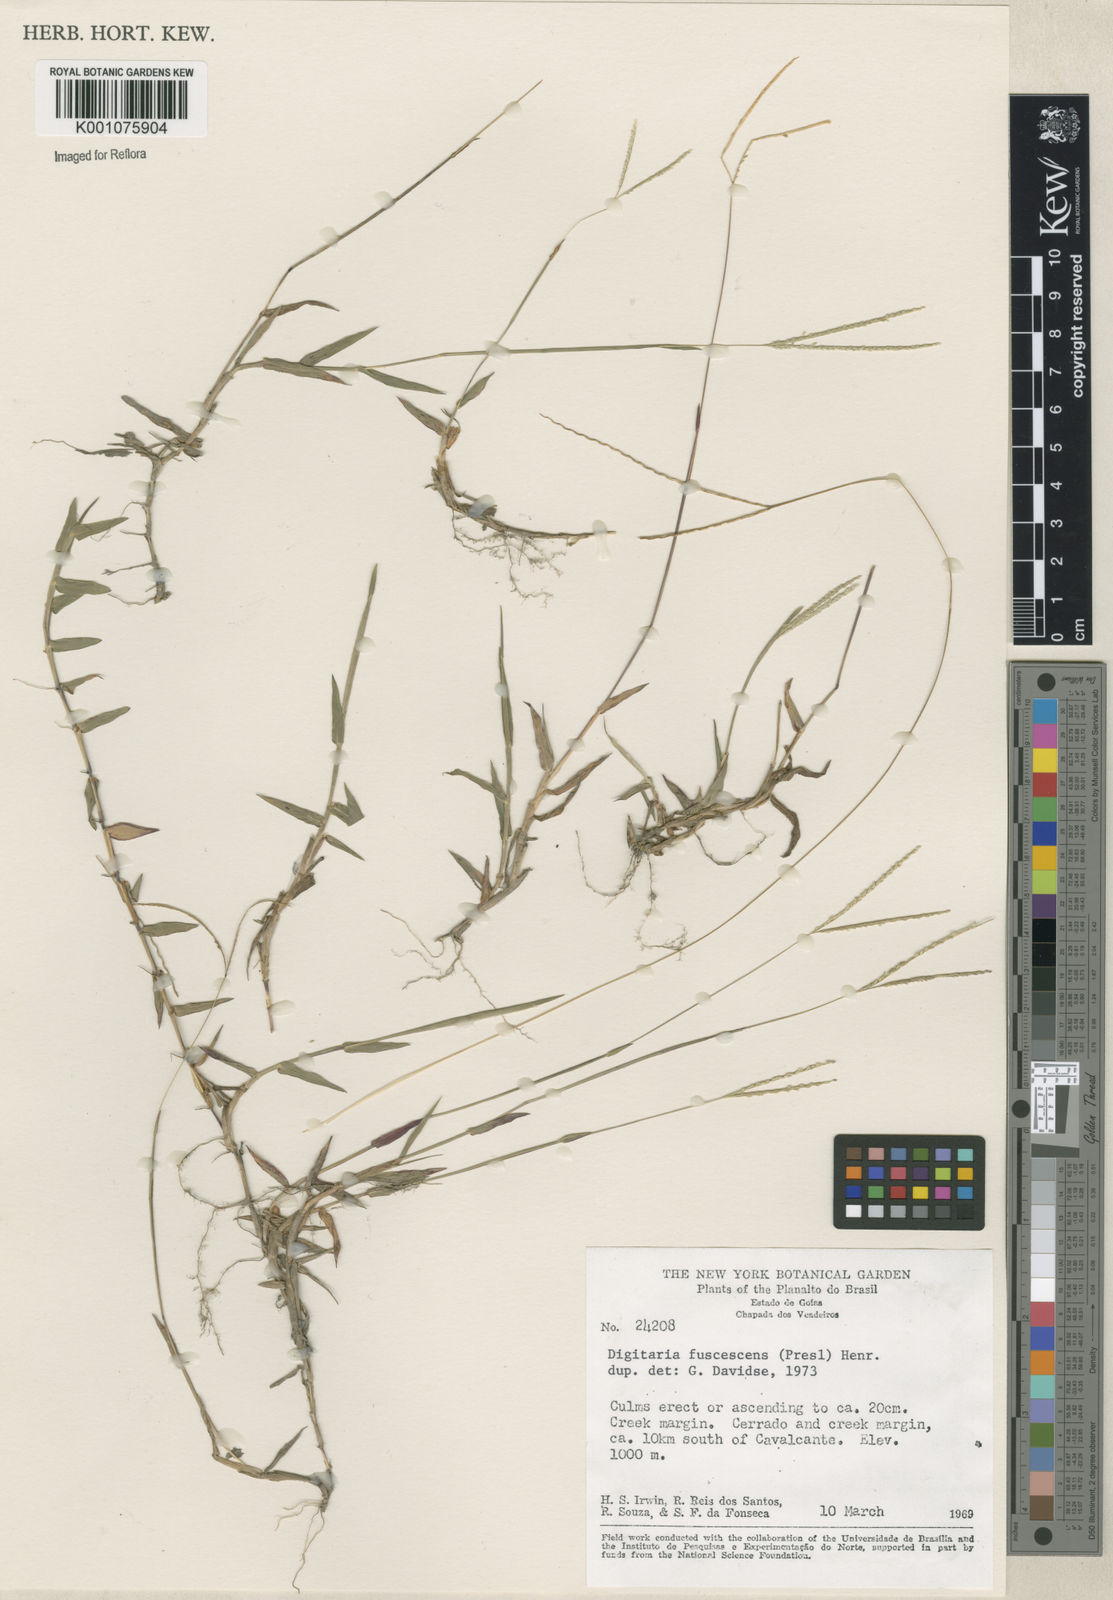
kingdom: Plantae
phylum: Tracheophyta
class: Liliopsida
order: Poales
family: Poaceae
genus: Digitaria
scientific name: Digitaria fuscescens
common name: Yellow crabgrass
